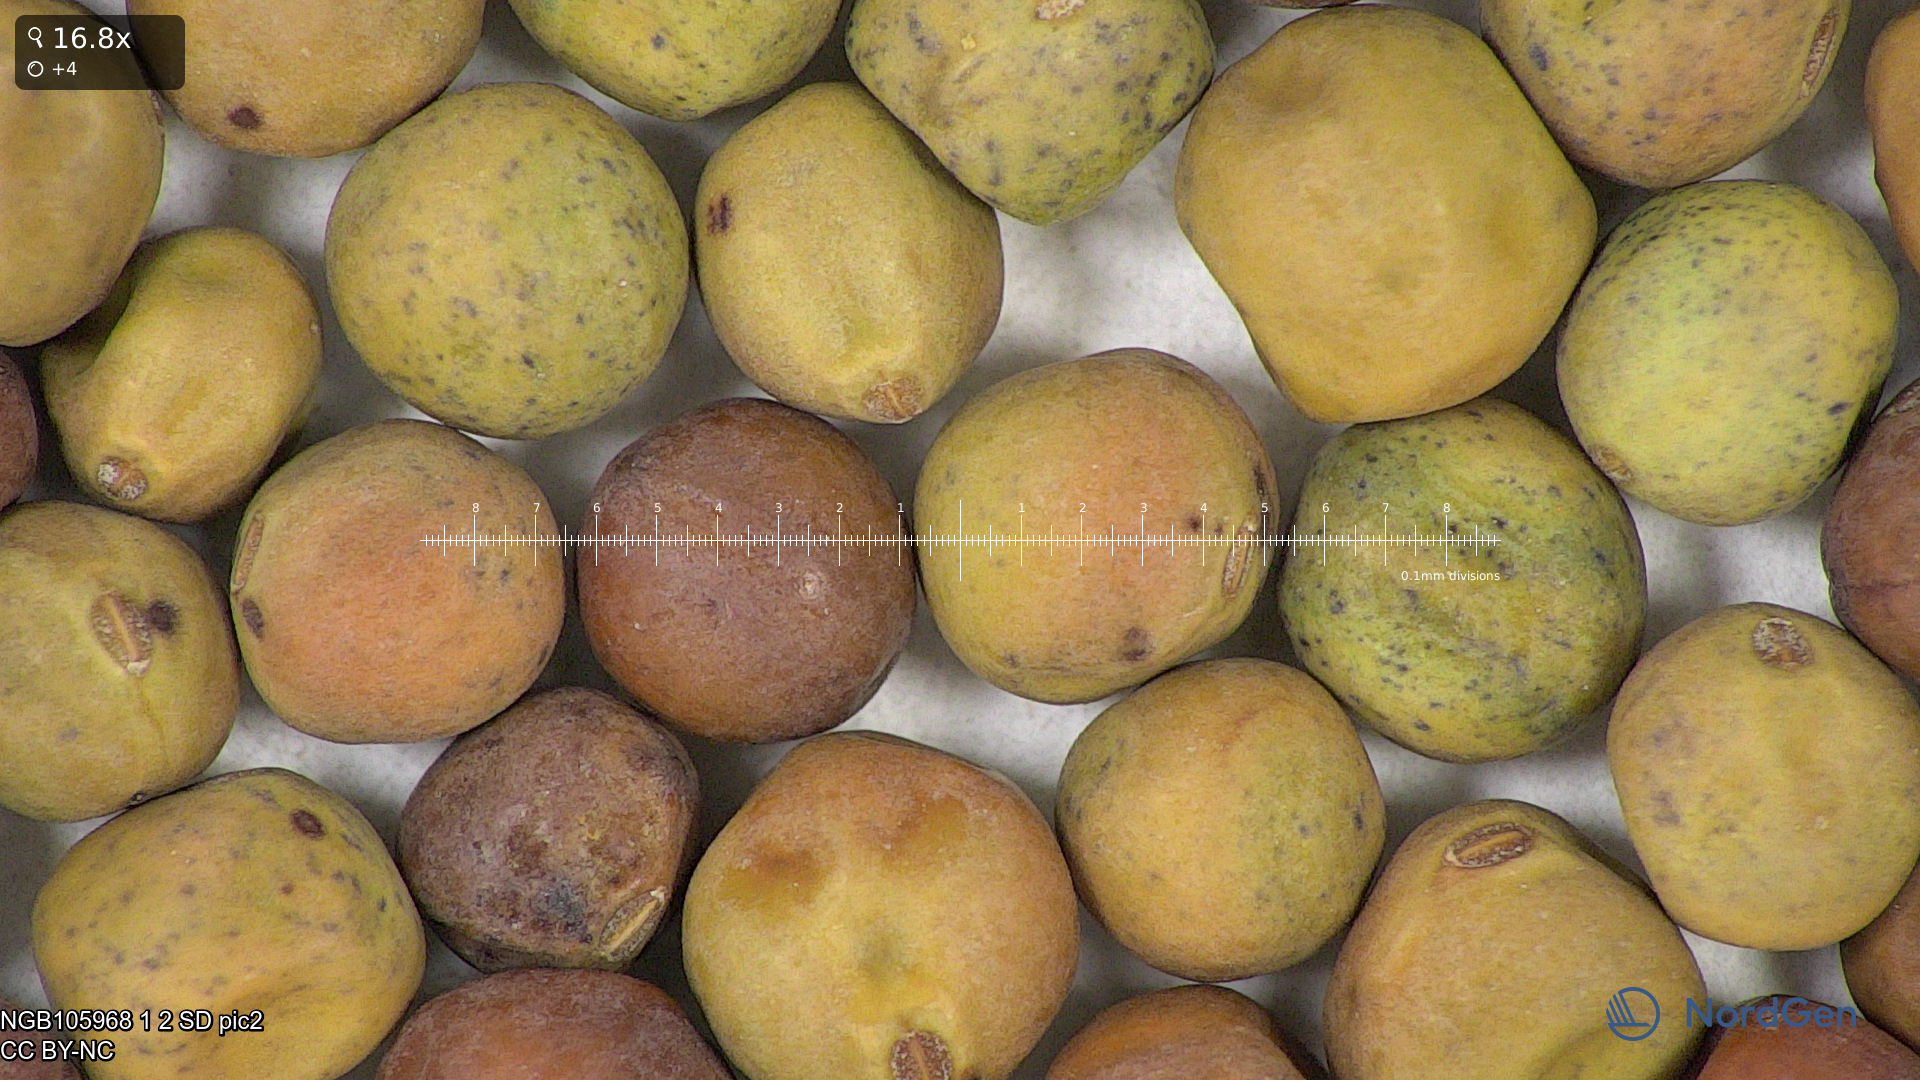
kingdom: Plantae
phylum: Tracheophyta
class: Magnoliopsida
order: Fabales
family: Fabaceae
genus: Lathyrus
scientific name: Lathyrus oleraceus
